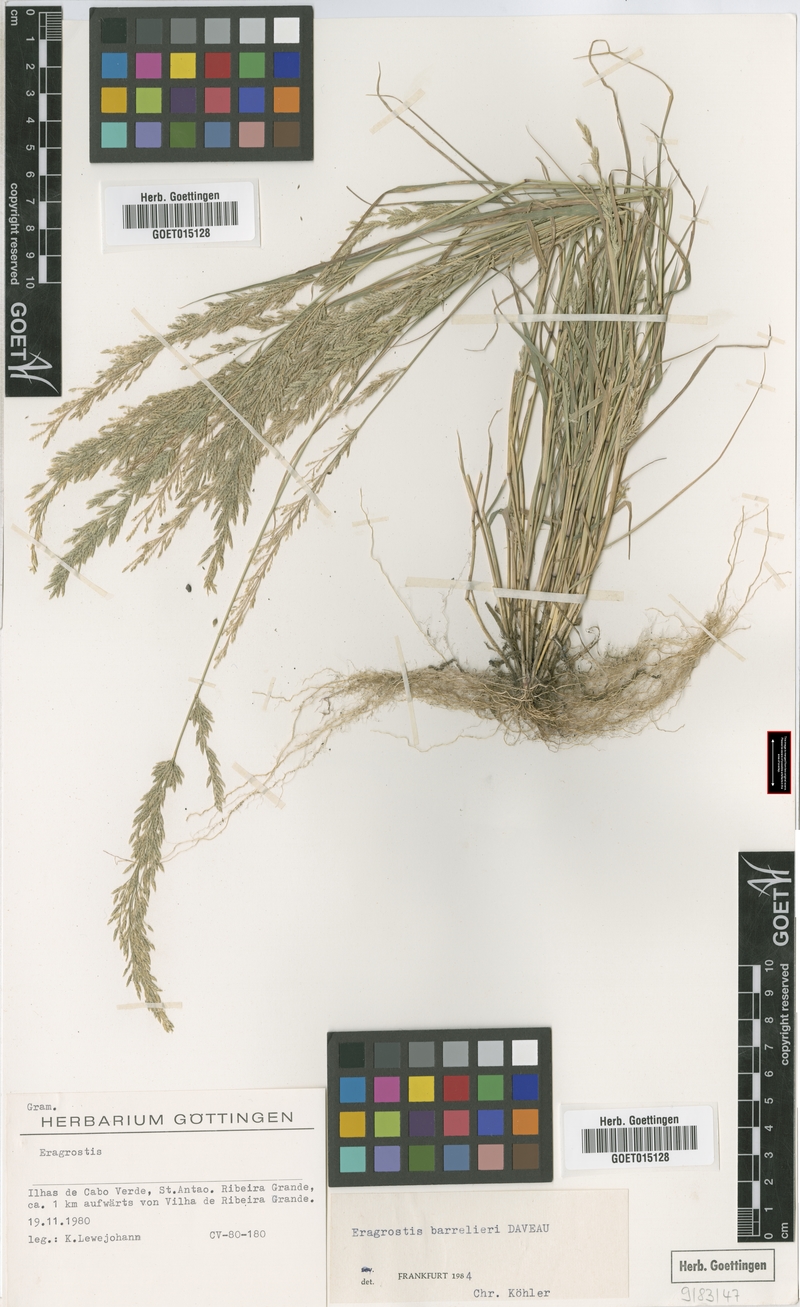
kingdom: Plantae
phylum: Tracheophyta
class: Liliopsida
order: Poales
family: Poaceae
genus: Eragrostis
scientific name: Eragrostis barrelieri
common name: Mediterranean lovegrass
